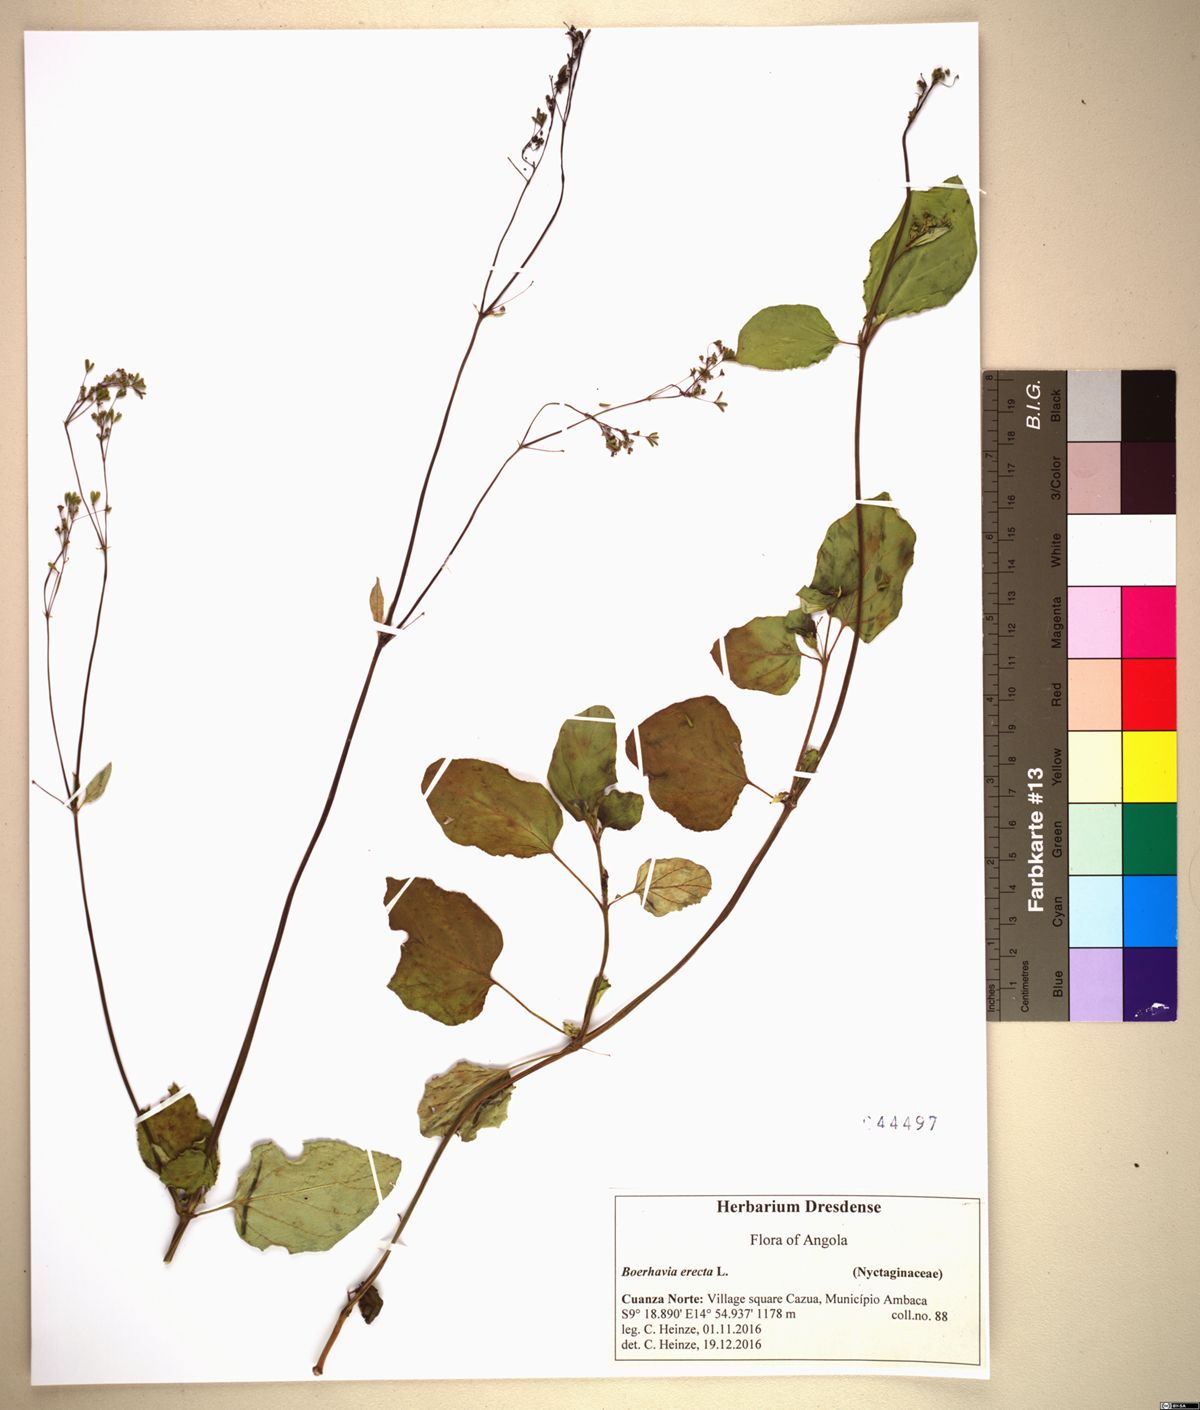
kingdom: Plantae
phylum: Tracheophyta
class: Magnoliopsida
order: Caryophyllales
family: Nyctaginaceae
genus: Boerhavia
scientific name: Boerhavia diffusa
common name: Red spiderling
